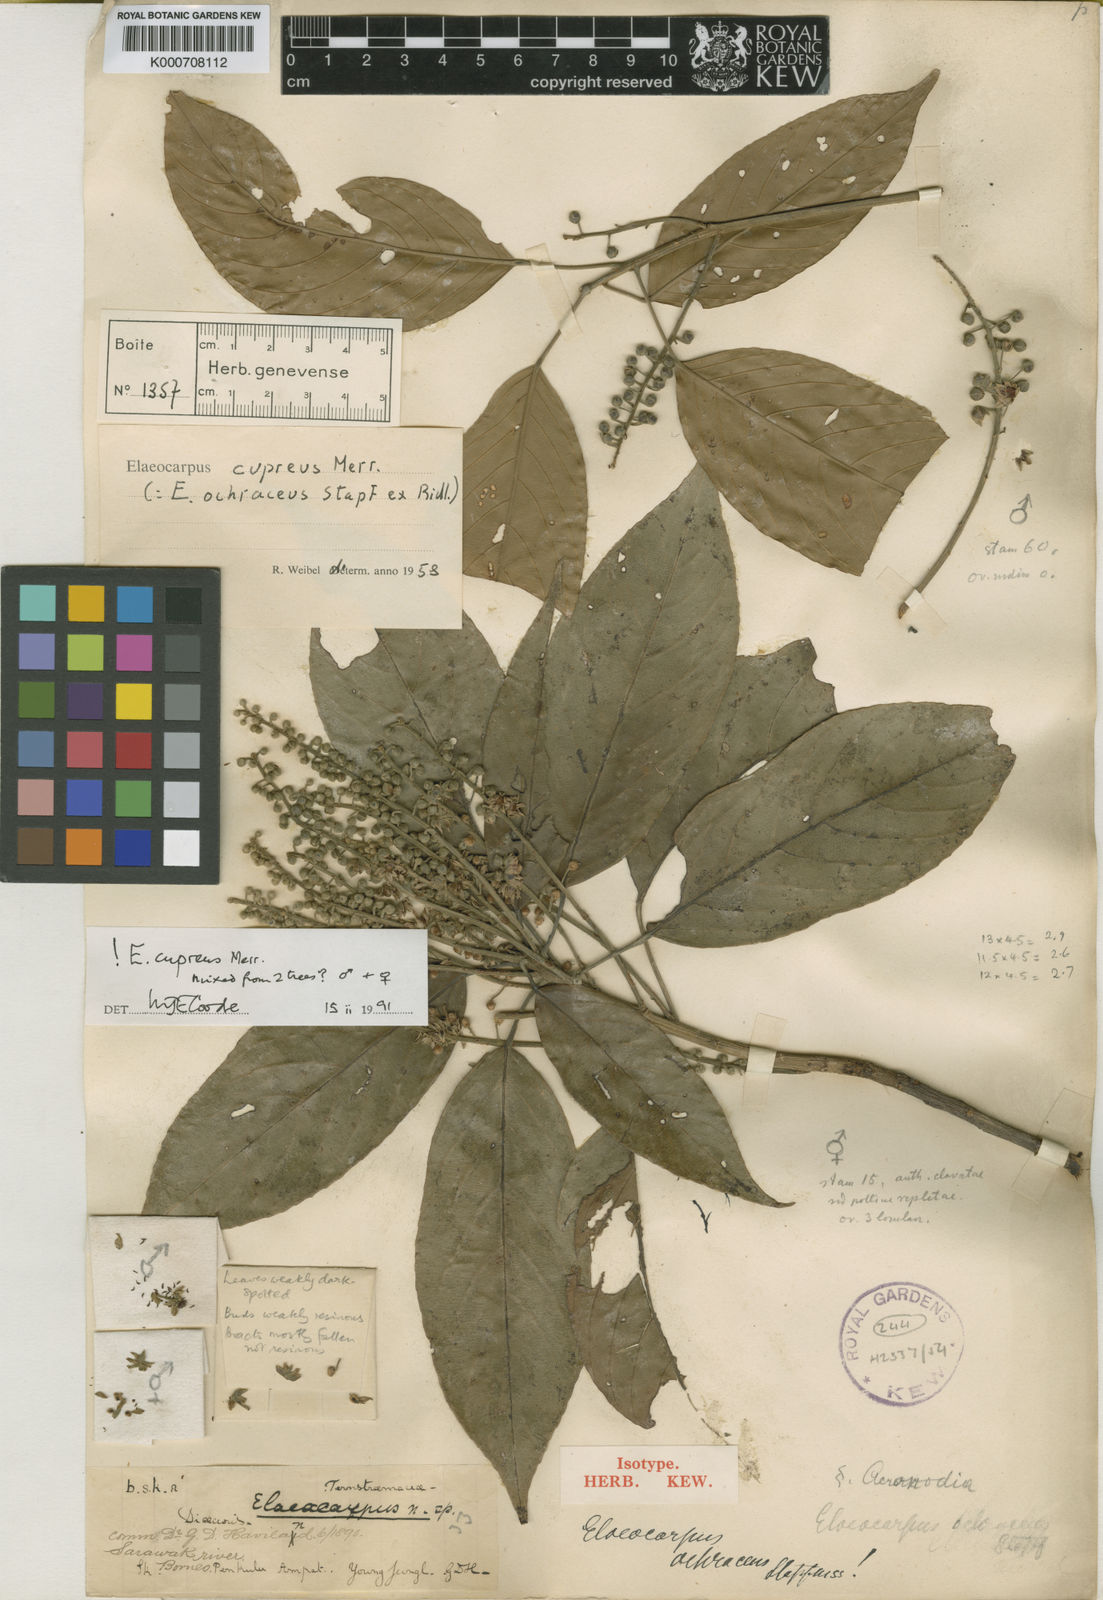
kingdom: Plantae
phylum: Tracheophyta
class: Magnoliopsida
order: Oxalidales
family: Elaeocarpaceae
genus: Elaeocarpus
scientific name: Elaeocarpus cupreus
